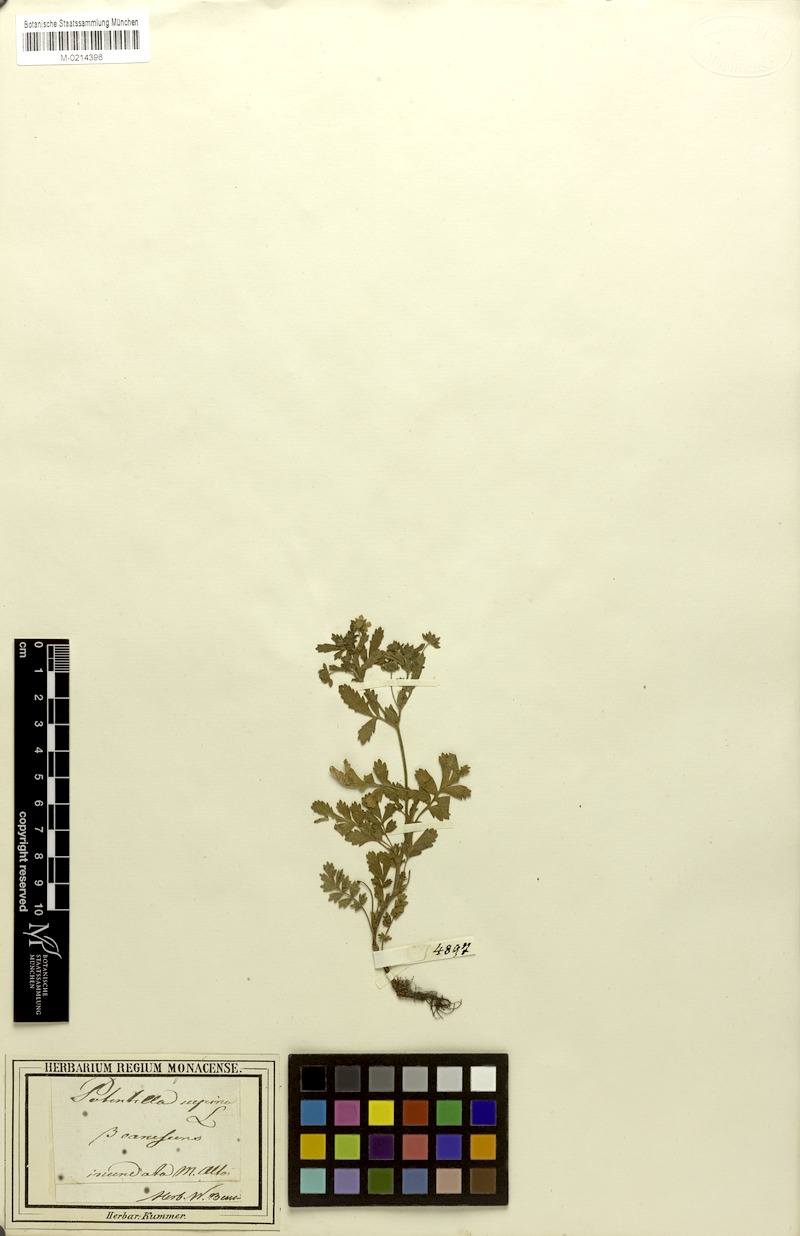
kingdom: Plantae
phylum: Tracheophyta
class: Magnoliopsida
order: Rosales
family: Rosaceae
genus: Potentilla
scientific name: Potentilla supina
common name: Prostrate cinquefoil
